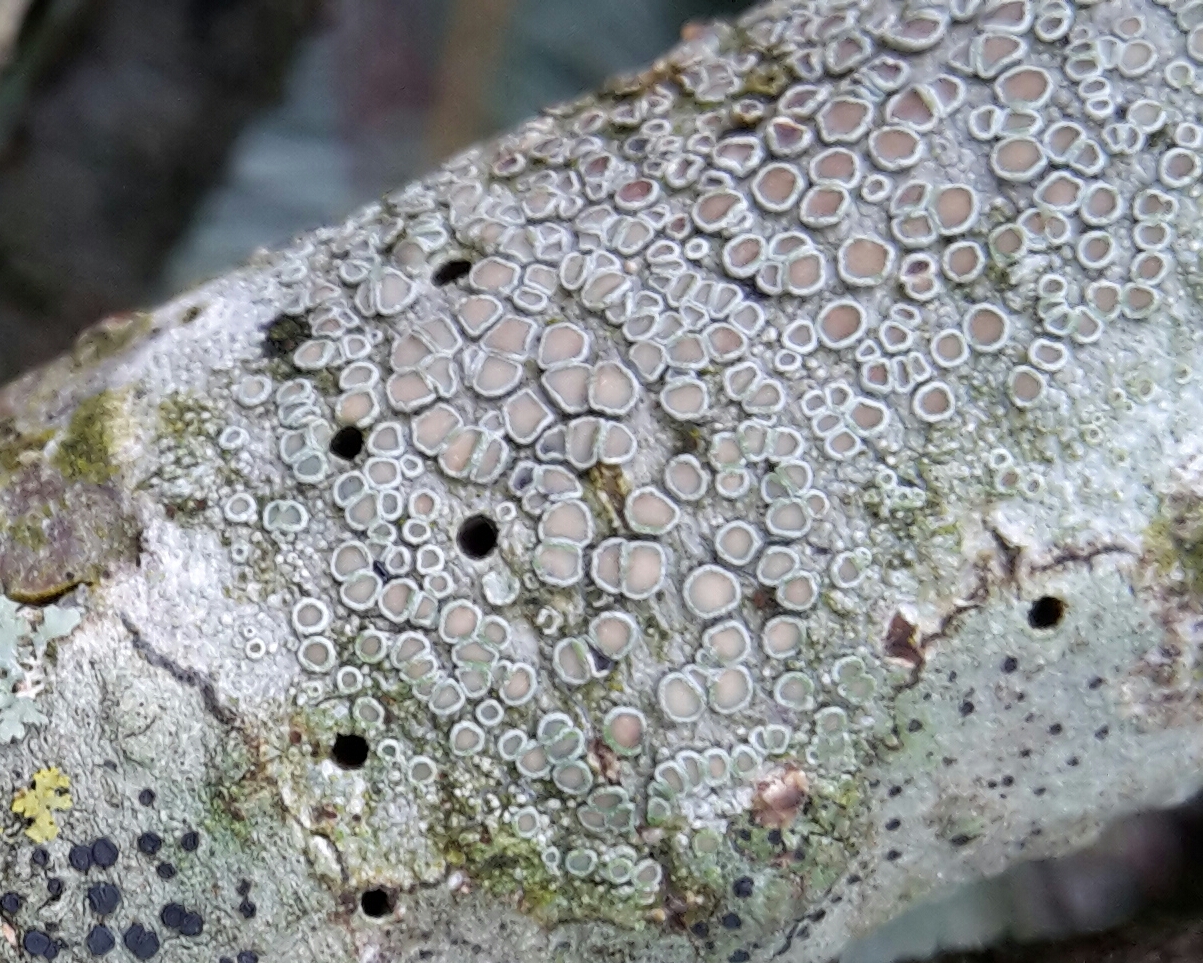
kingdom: Fungi
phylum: Ascomycota
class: Lecanoromycetes
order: Lecanorales
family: Lecanoraceae
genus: Lecanora
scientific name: Lecanora chlarotera
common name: brun kantskivelav
